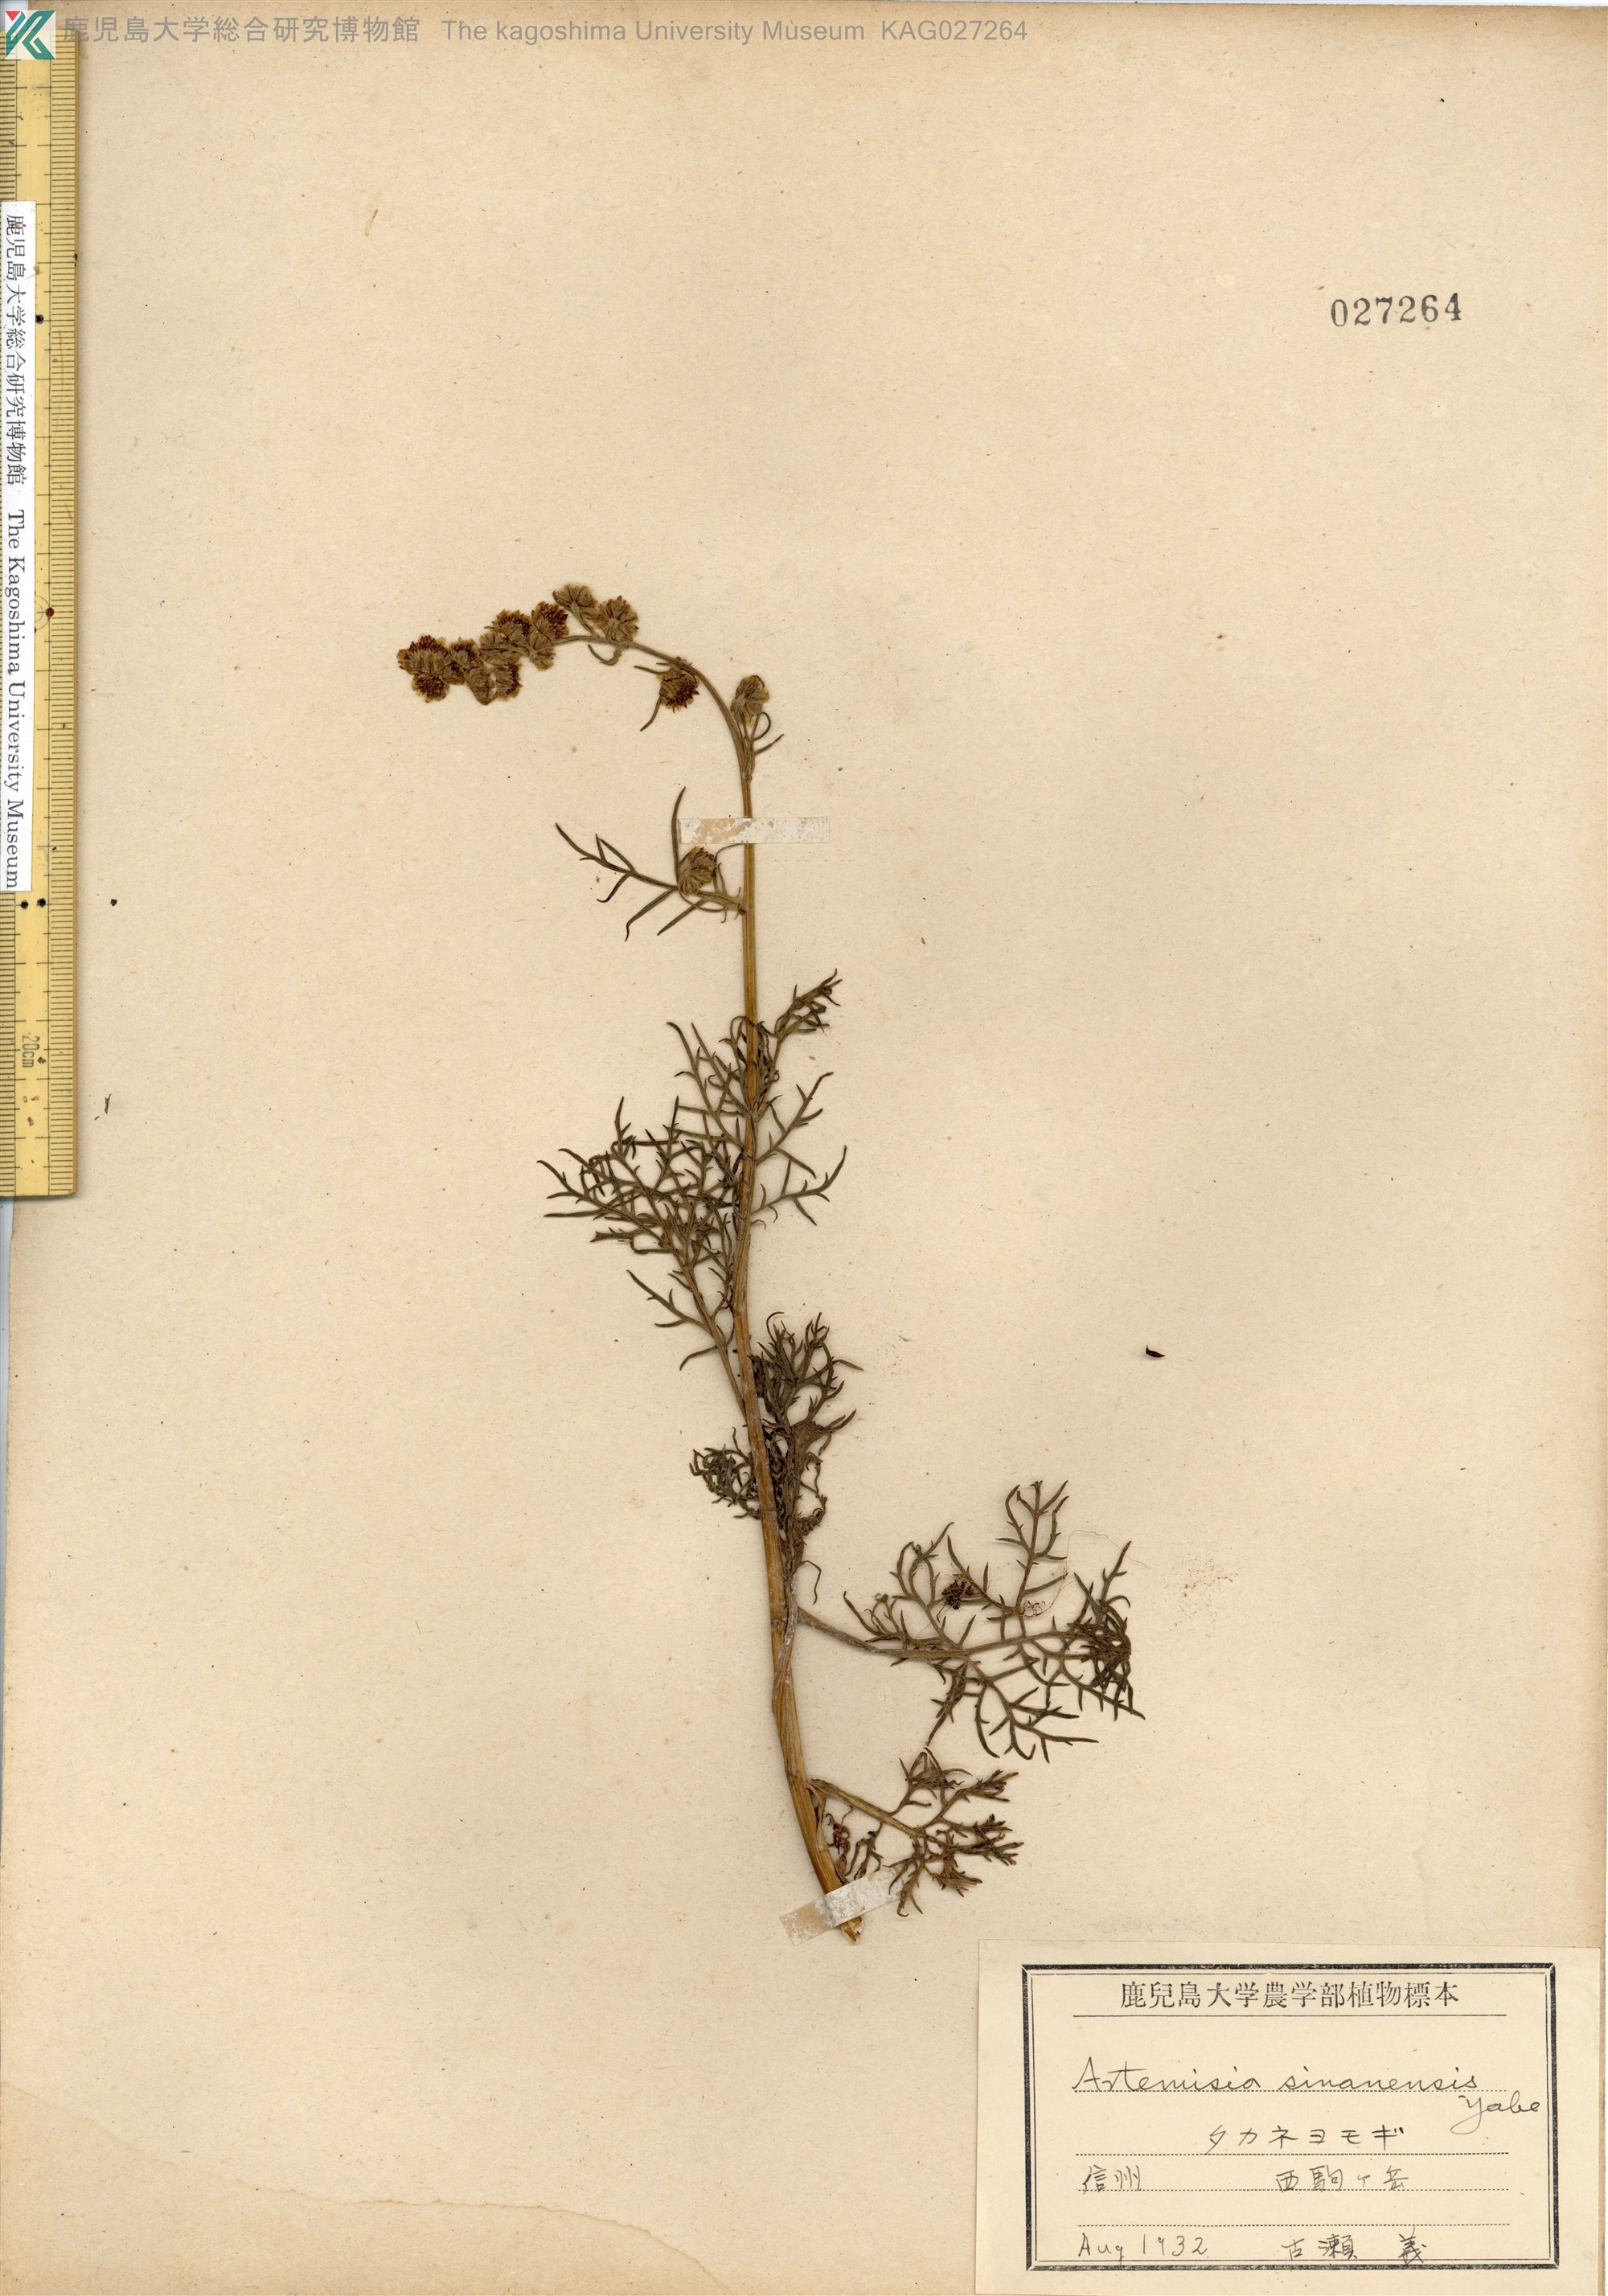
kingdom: Plantae
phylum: Tracheophyta
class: Magnoliopsida
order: Asterales
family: Asteraceae
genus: Artemisia
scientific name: Artemisia
